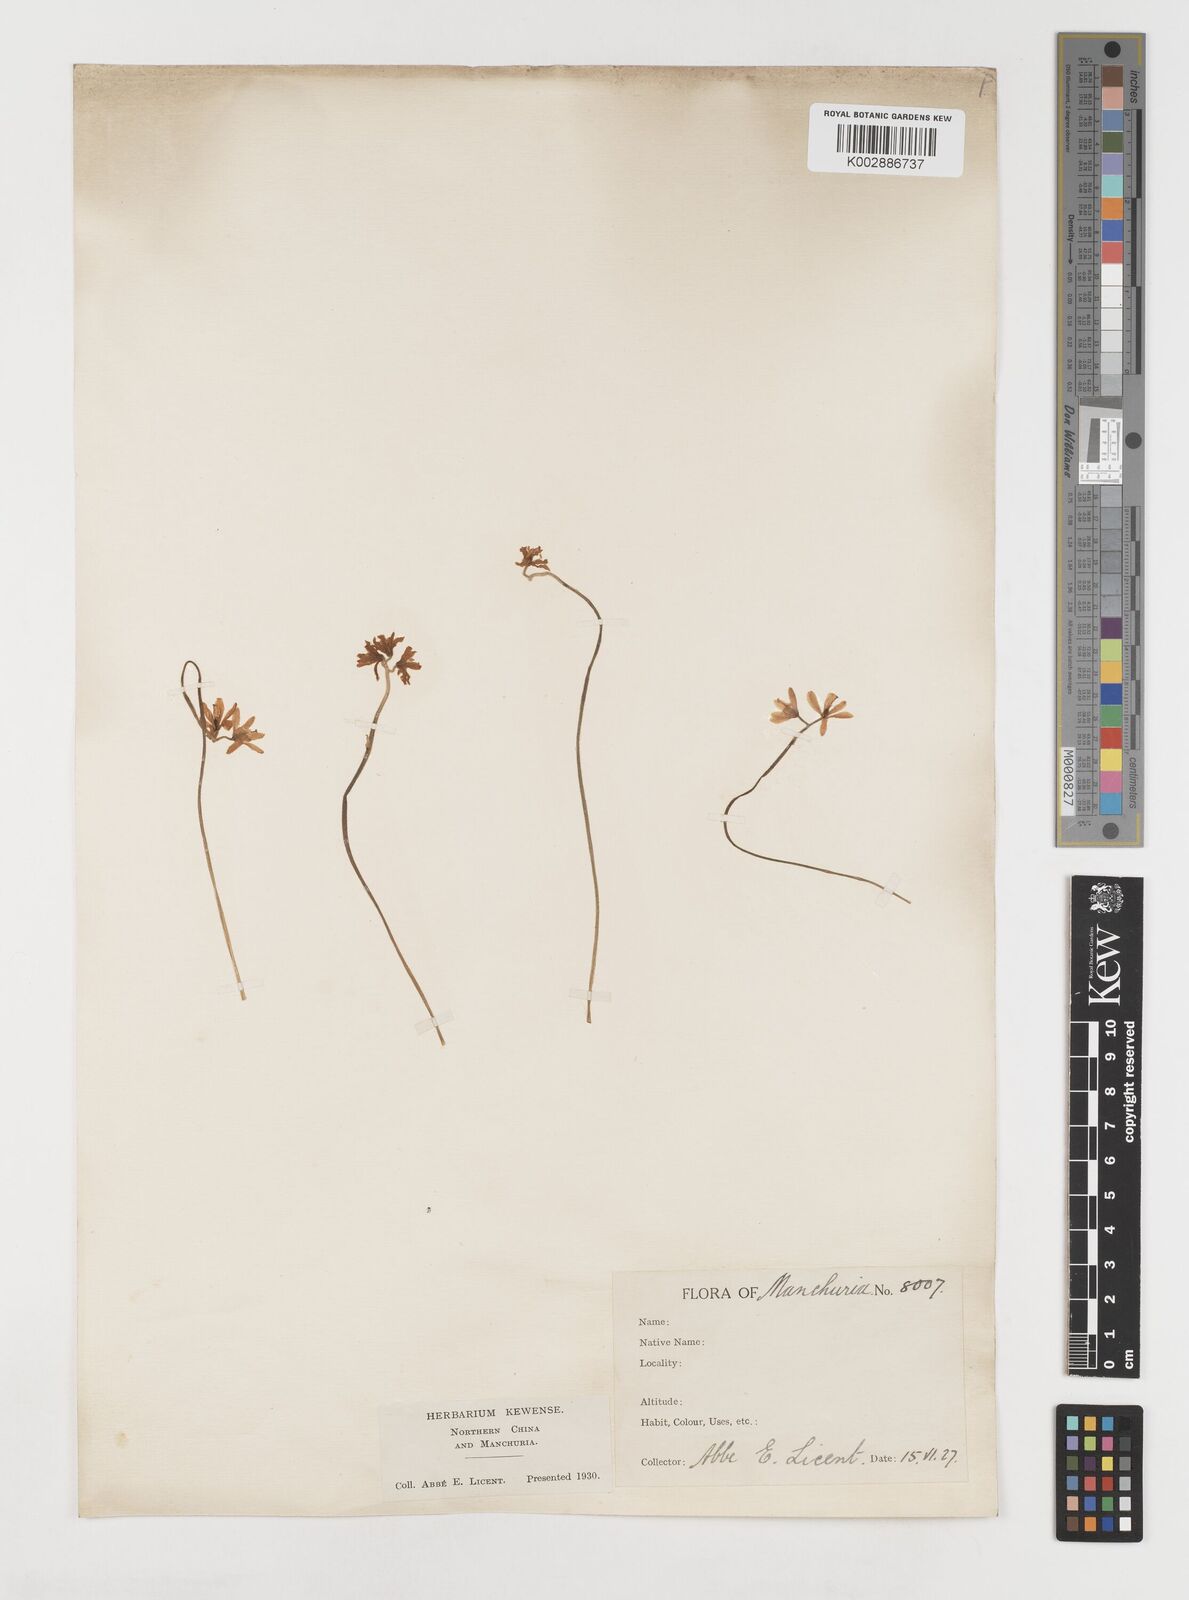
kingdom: Plantae
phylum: Tracheophyta
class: Liliopsida
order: Liliales
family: Liliaceae
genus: Clintonia
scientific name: Clintonia udensis
